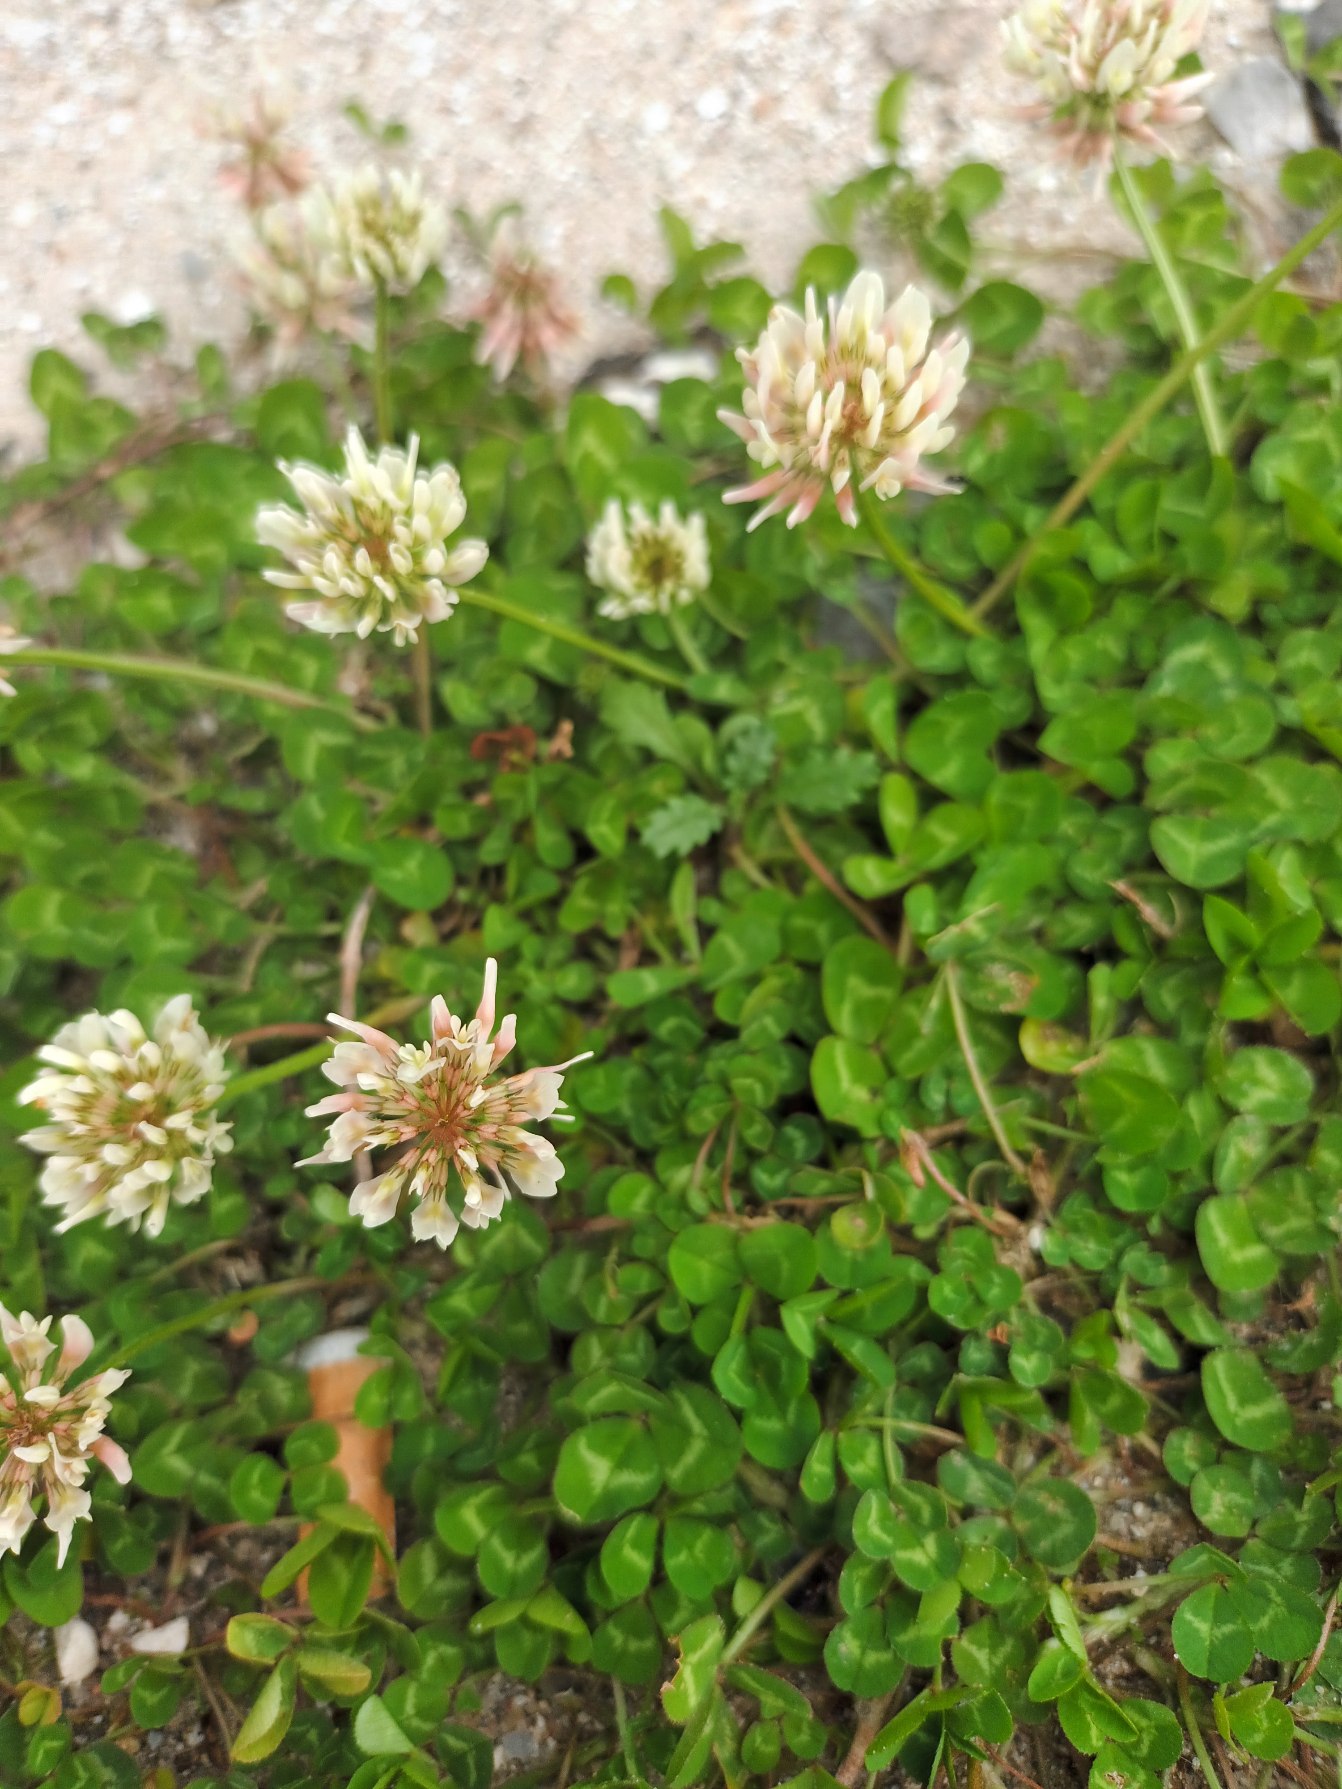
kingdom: Plantae
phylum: Tracheophyta
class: Magnoliopsida
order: Fabales
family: Fabaceae
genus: Trifolium
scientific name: Trifolium repens
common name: Hvid-kløver
